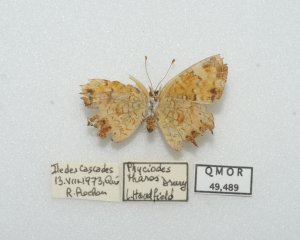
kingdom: Animalia
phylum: Arthropoda
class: Insecta
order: Lepidoptera
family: Nymphalidae
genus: Phyciodes
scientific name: Phyciodes tharos
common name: Northern Crescent
